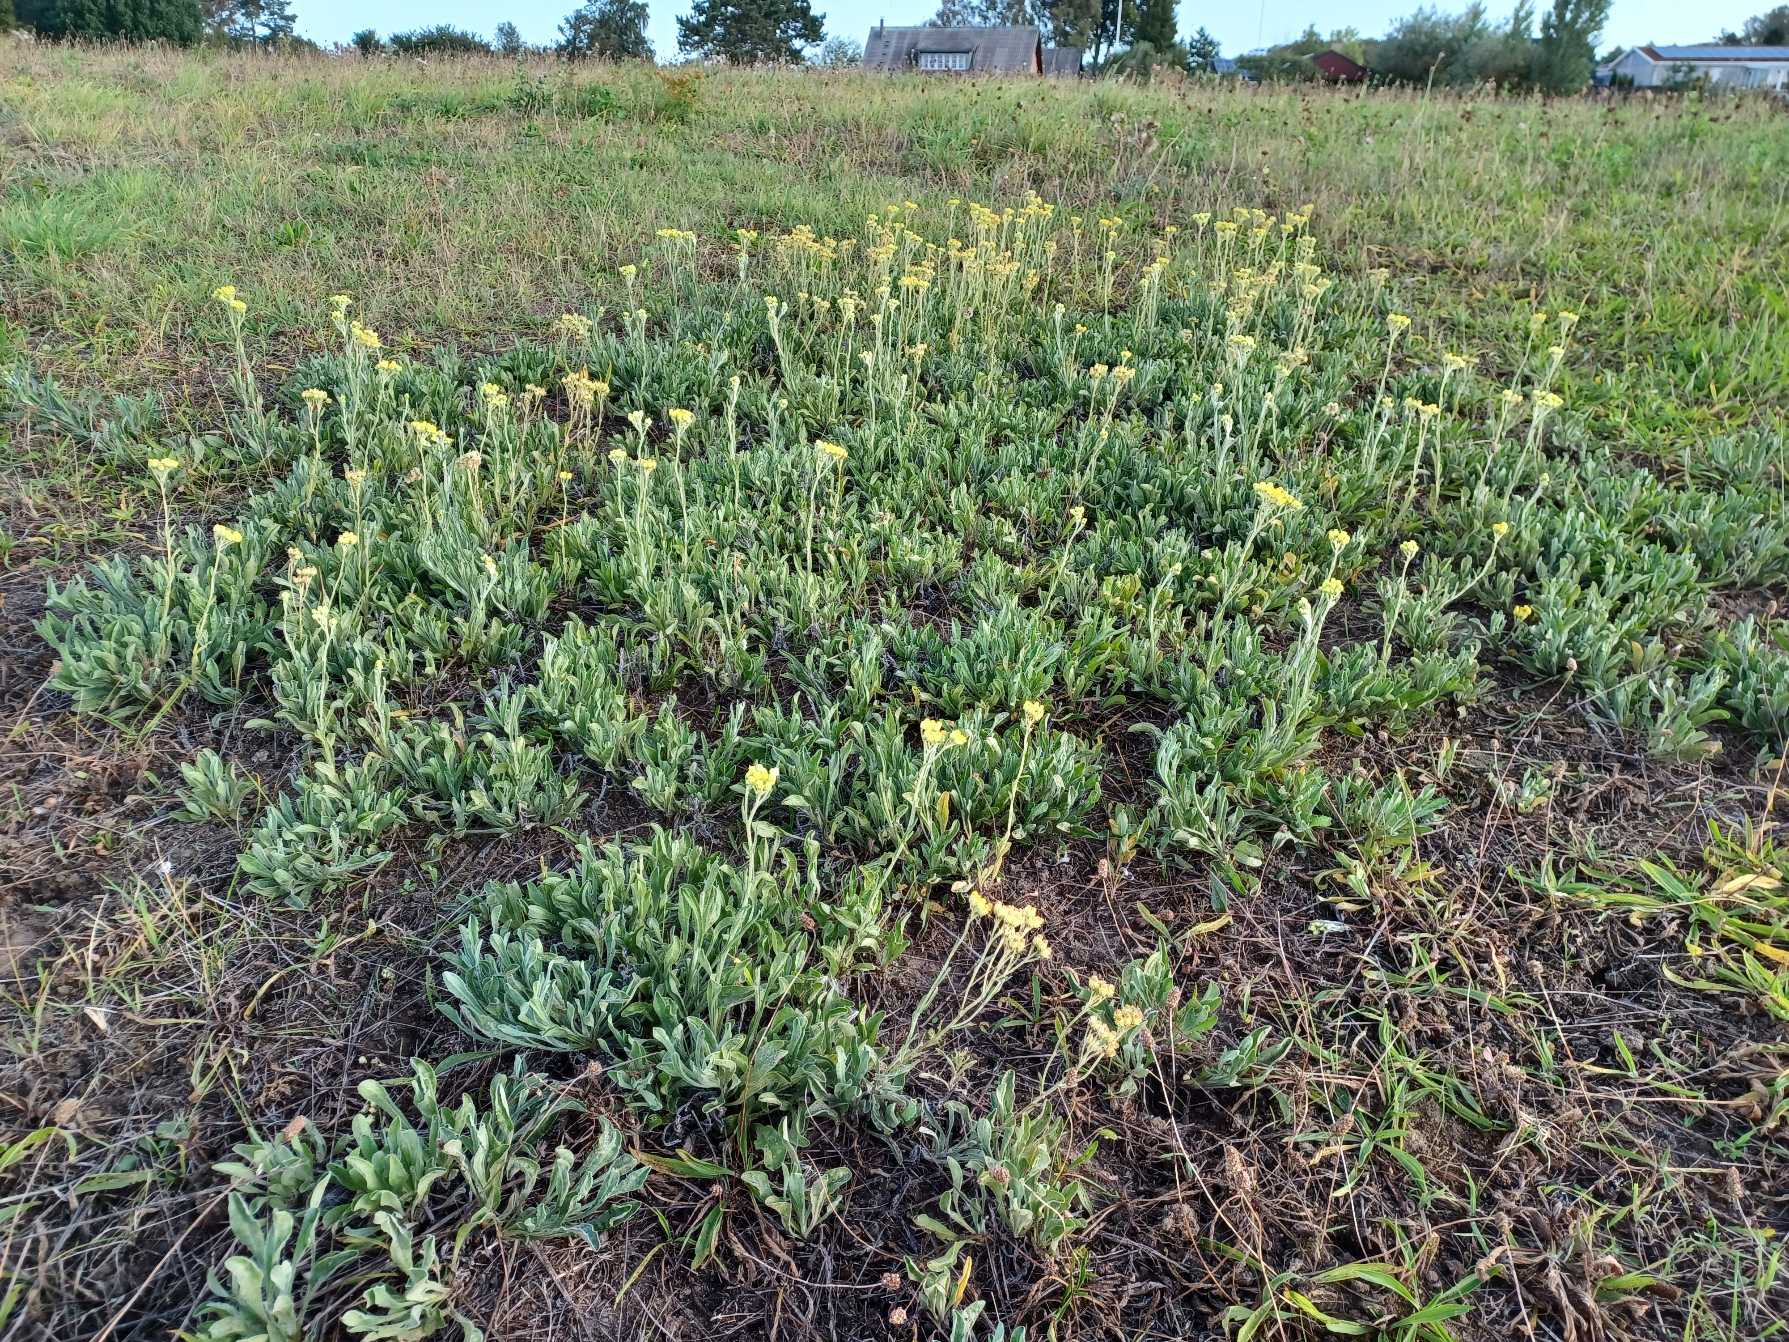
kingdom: Plantae
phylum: Tracheophyta
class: Magnoliopsida
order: Asterales
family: Asteraceae
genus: Helichrysum
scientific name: Helichrysum arenarium
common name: Gul evighedsblomst
